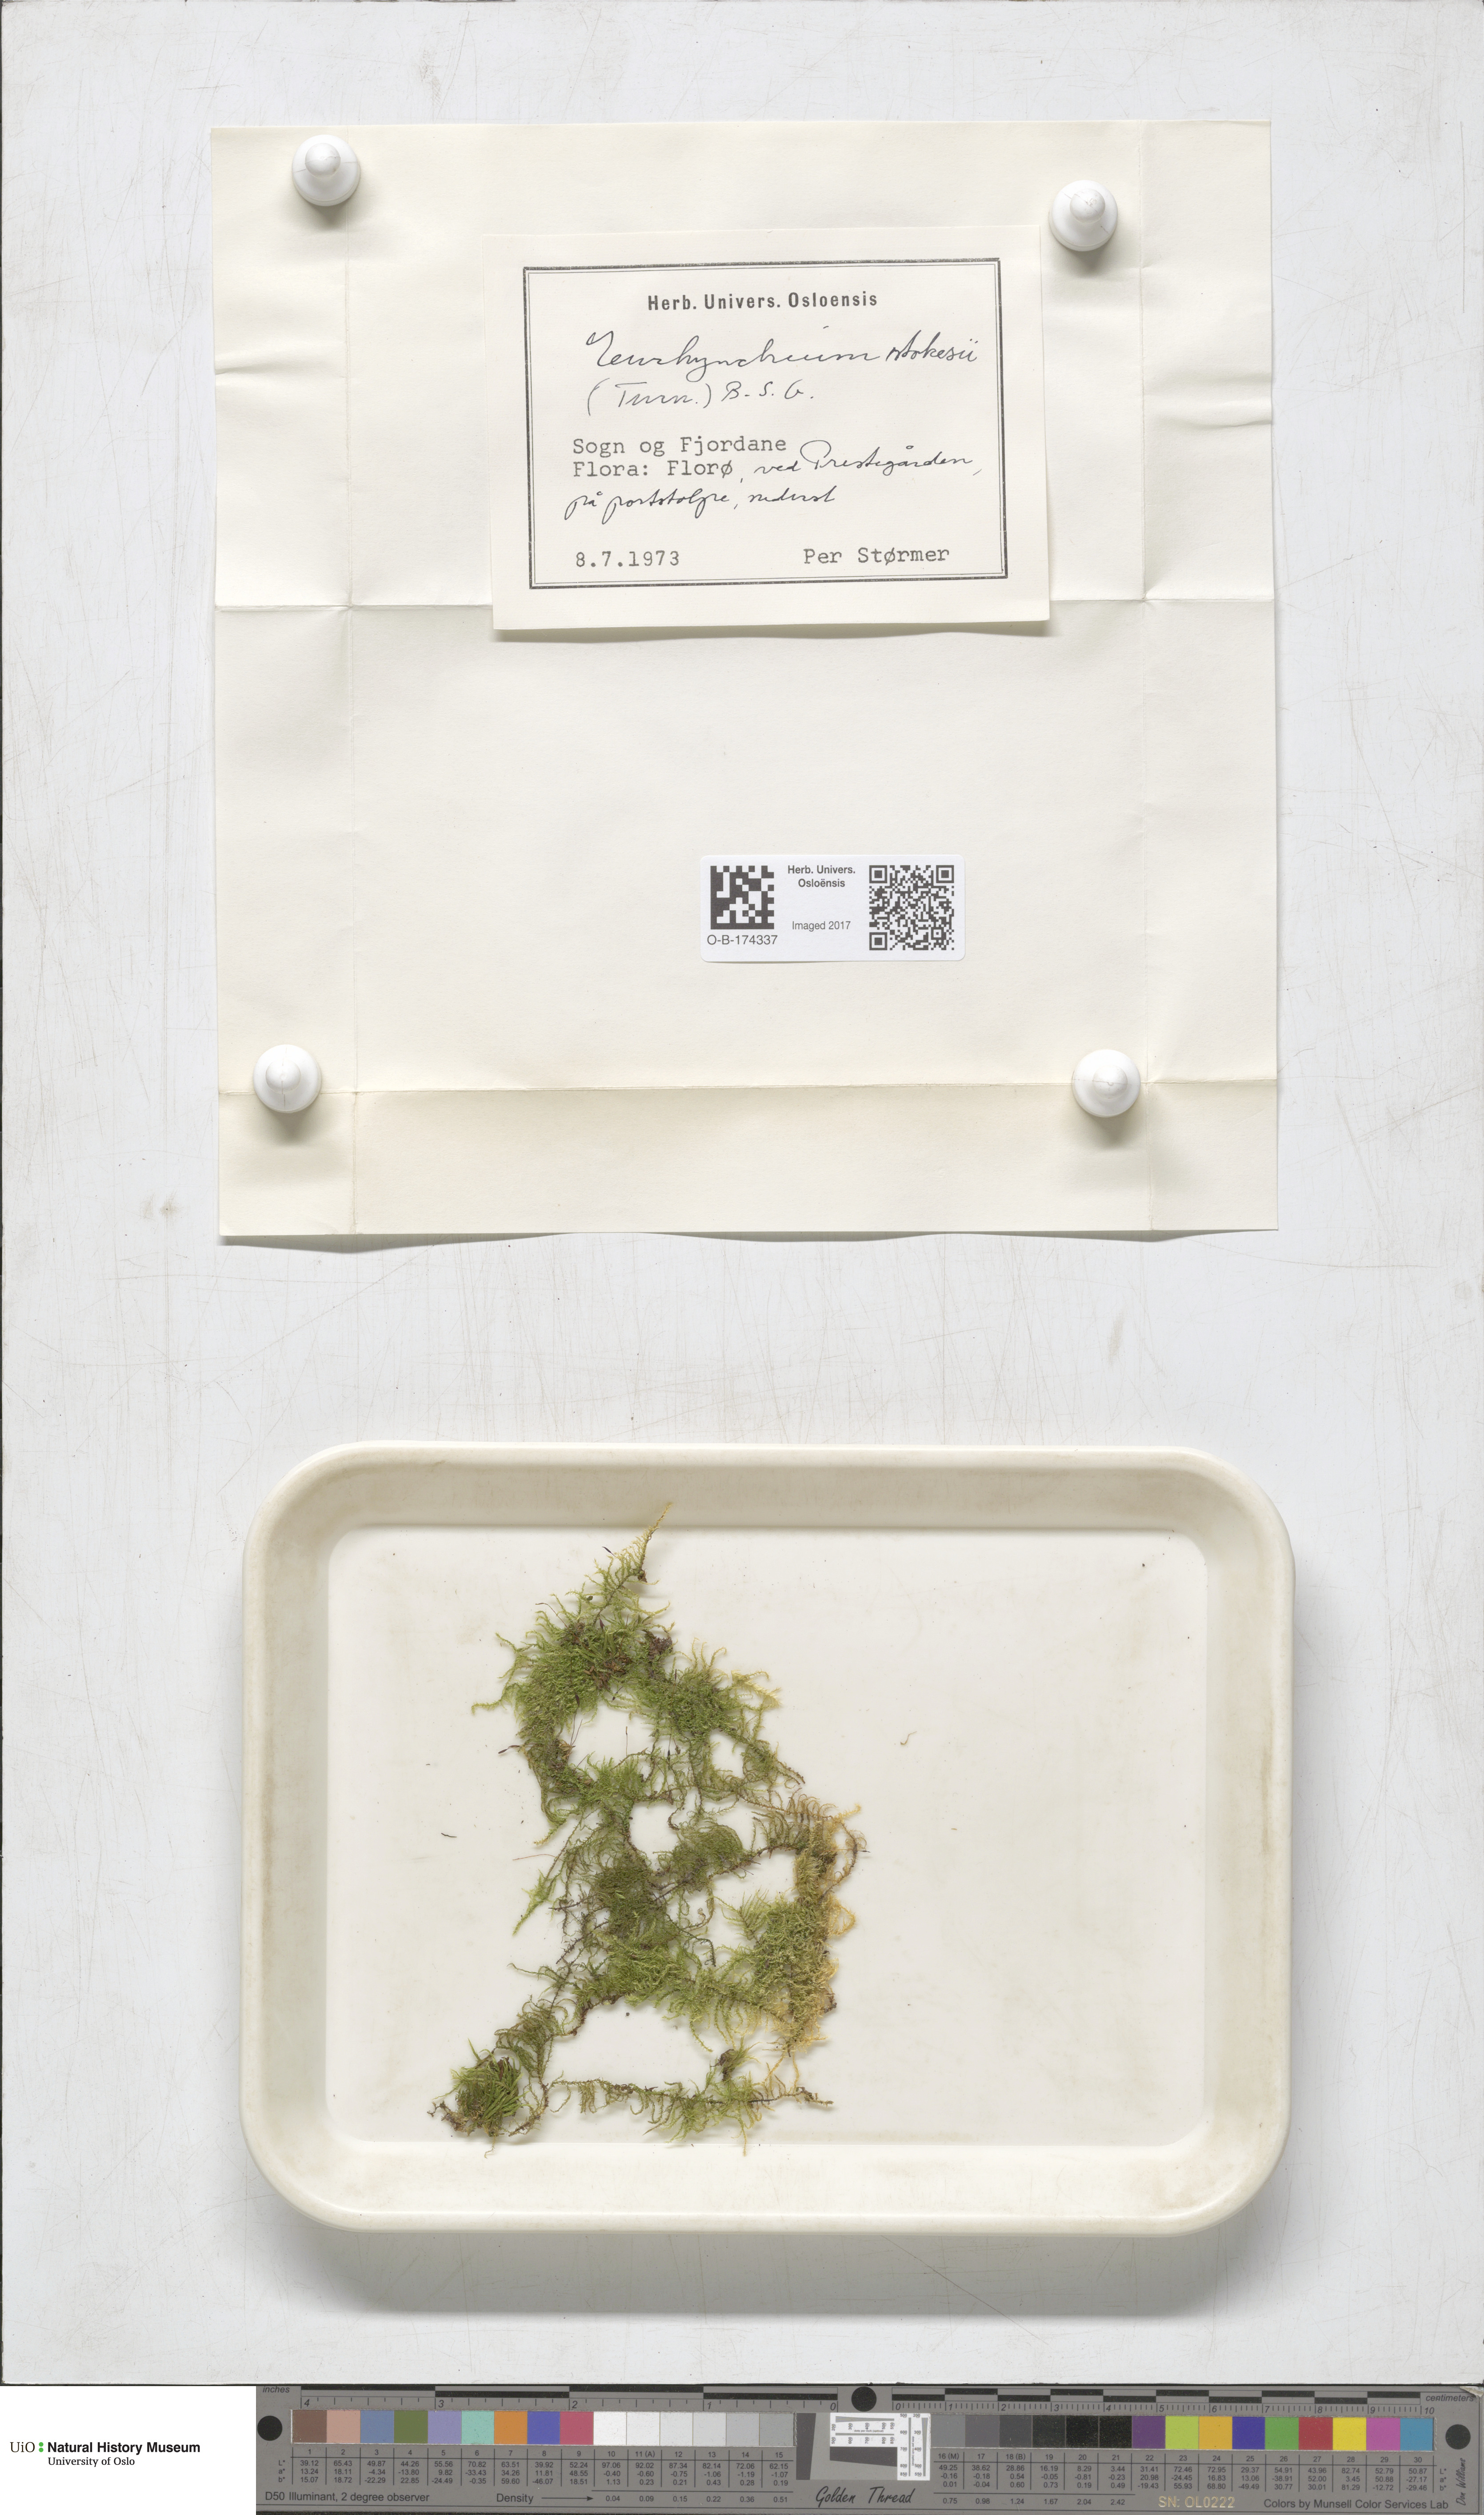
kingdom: Plantae
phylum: Bryophyta
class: Bryopsida
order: Hypnales
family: Brachytheciaceae
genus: Kindbergia
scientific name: Kindbergia praelonga
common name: Slender beaked moss
